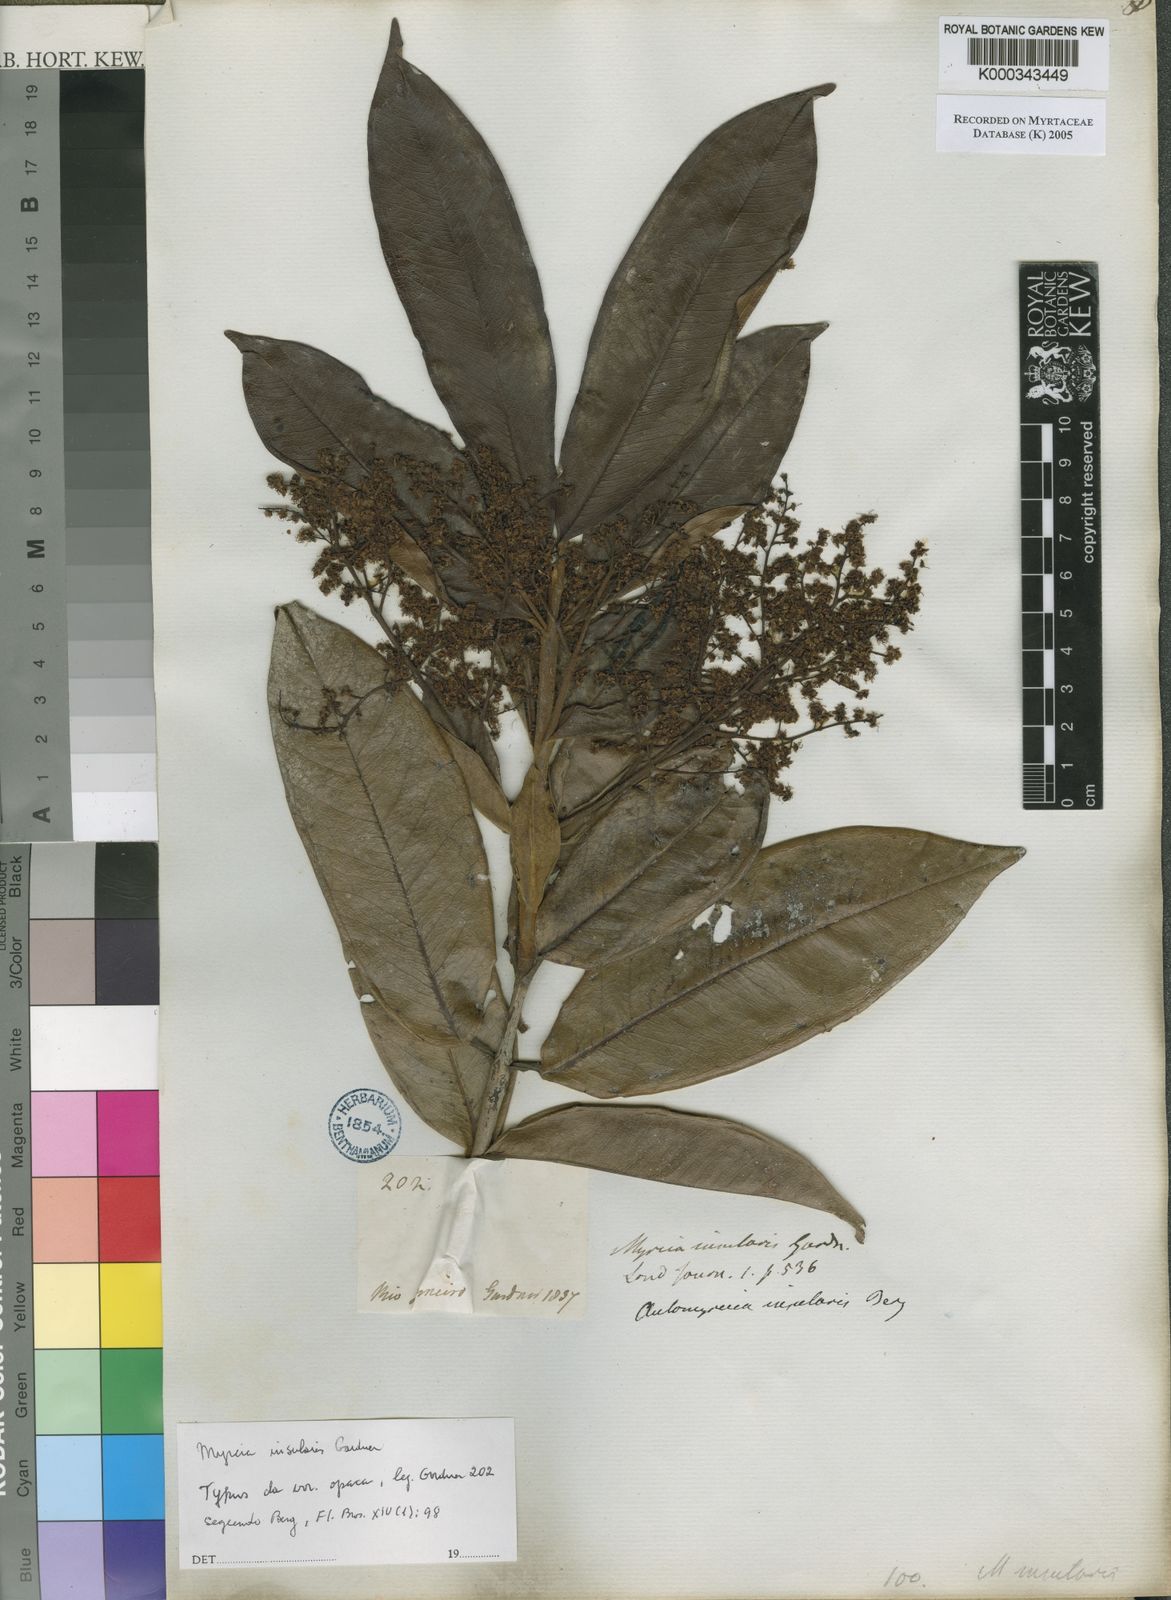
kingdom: Plantae
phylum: Tracheophyta
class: Magnoliopsida
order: Myrtales
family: Myrtaceae
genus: Myrcia
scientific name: Myrcia insularis
